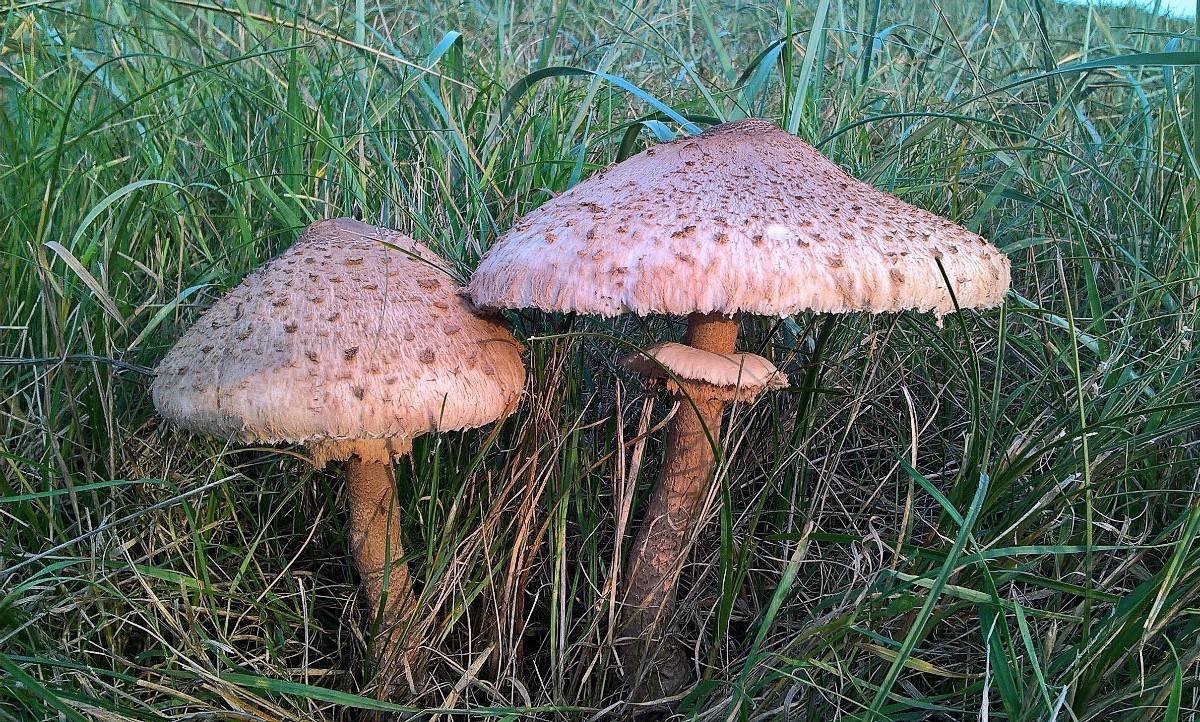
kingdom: Fungi
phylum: Basidiomycota
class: Agaricomycetes
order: Agaricales
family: Agaricaceae
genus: Macrolepiota
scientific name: Macrolepiota procera
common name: stor kæmpeparasolhat
